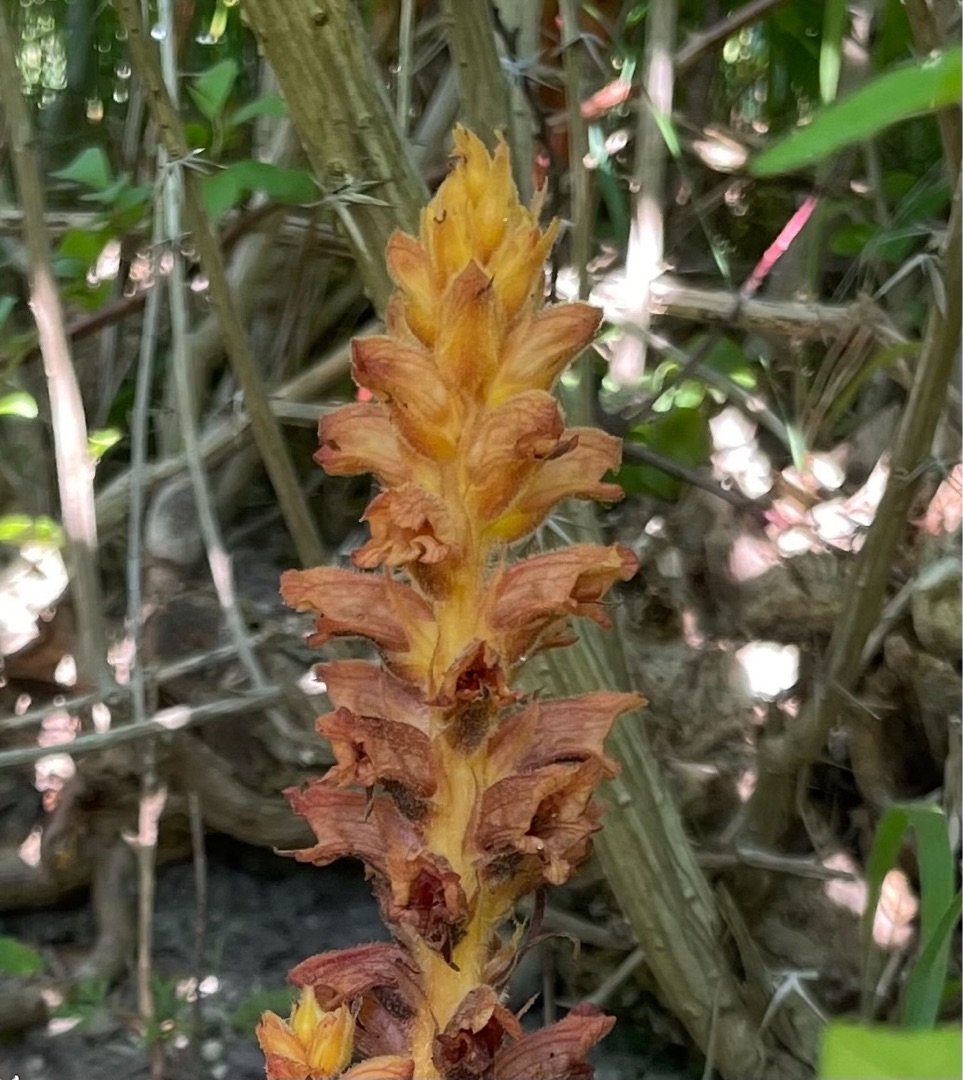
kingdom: Plantae
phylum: Tracheophyta
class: Magnoliopsida
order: Lamiales
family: Orobanchaceae
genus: Orobanche
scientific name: Orobanche lucorum
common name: Berberis-gyvelkvæler
